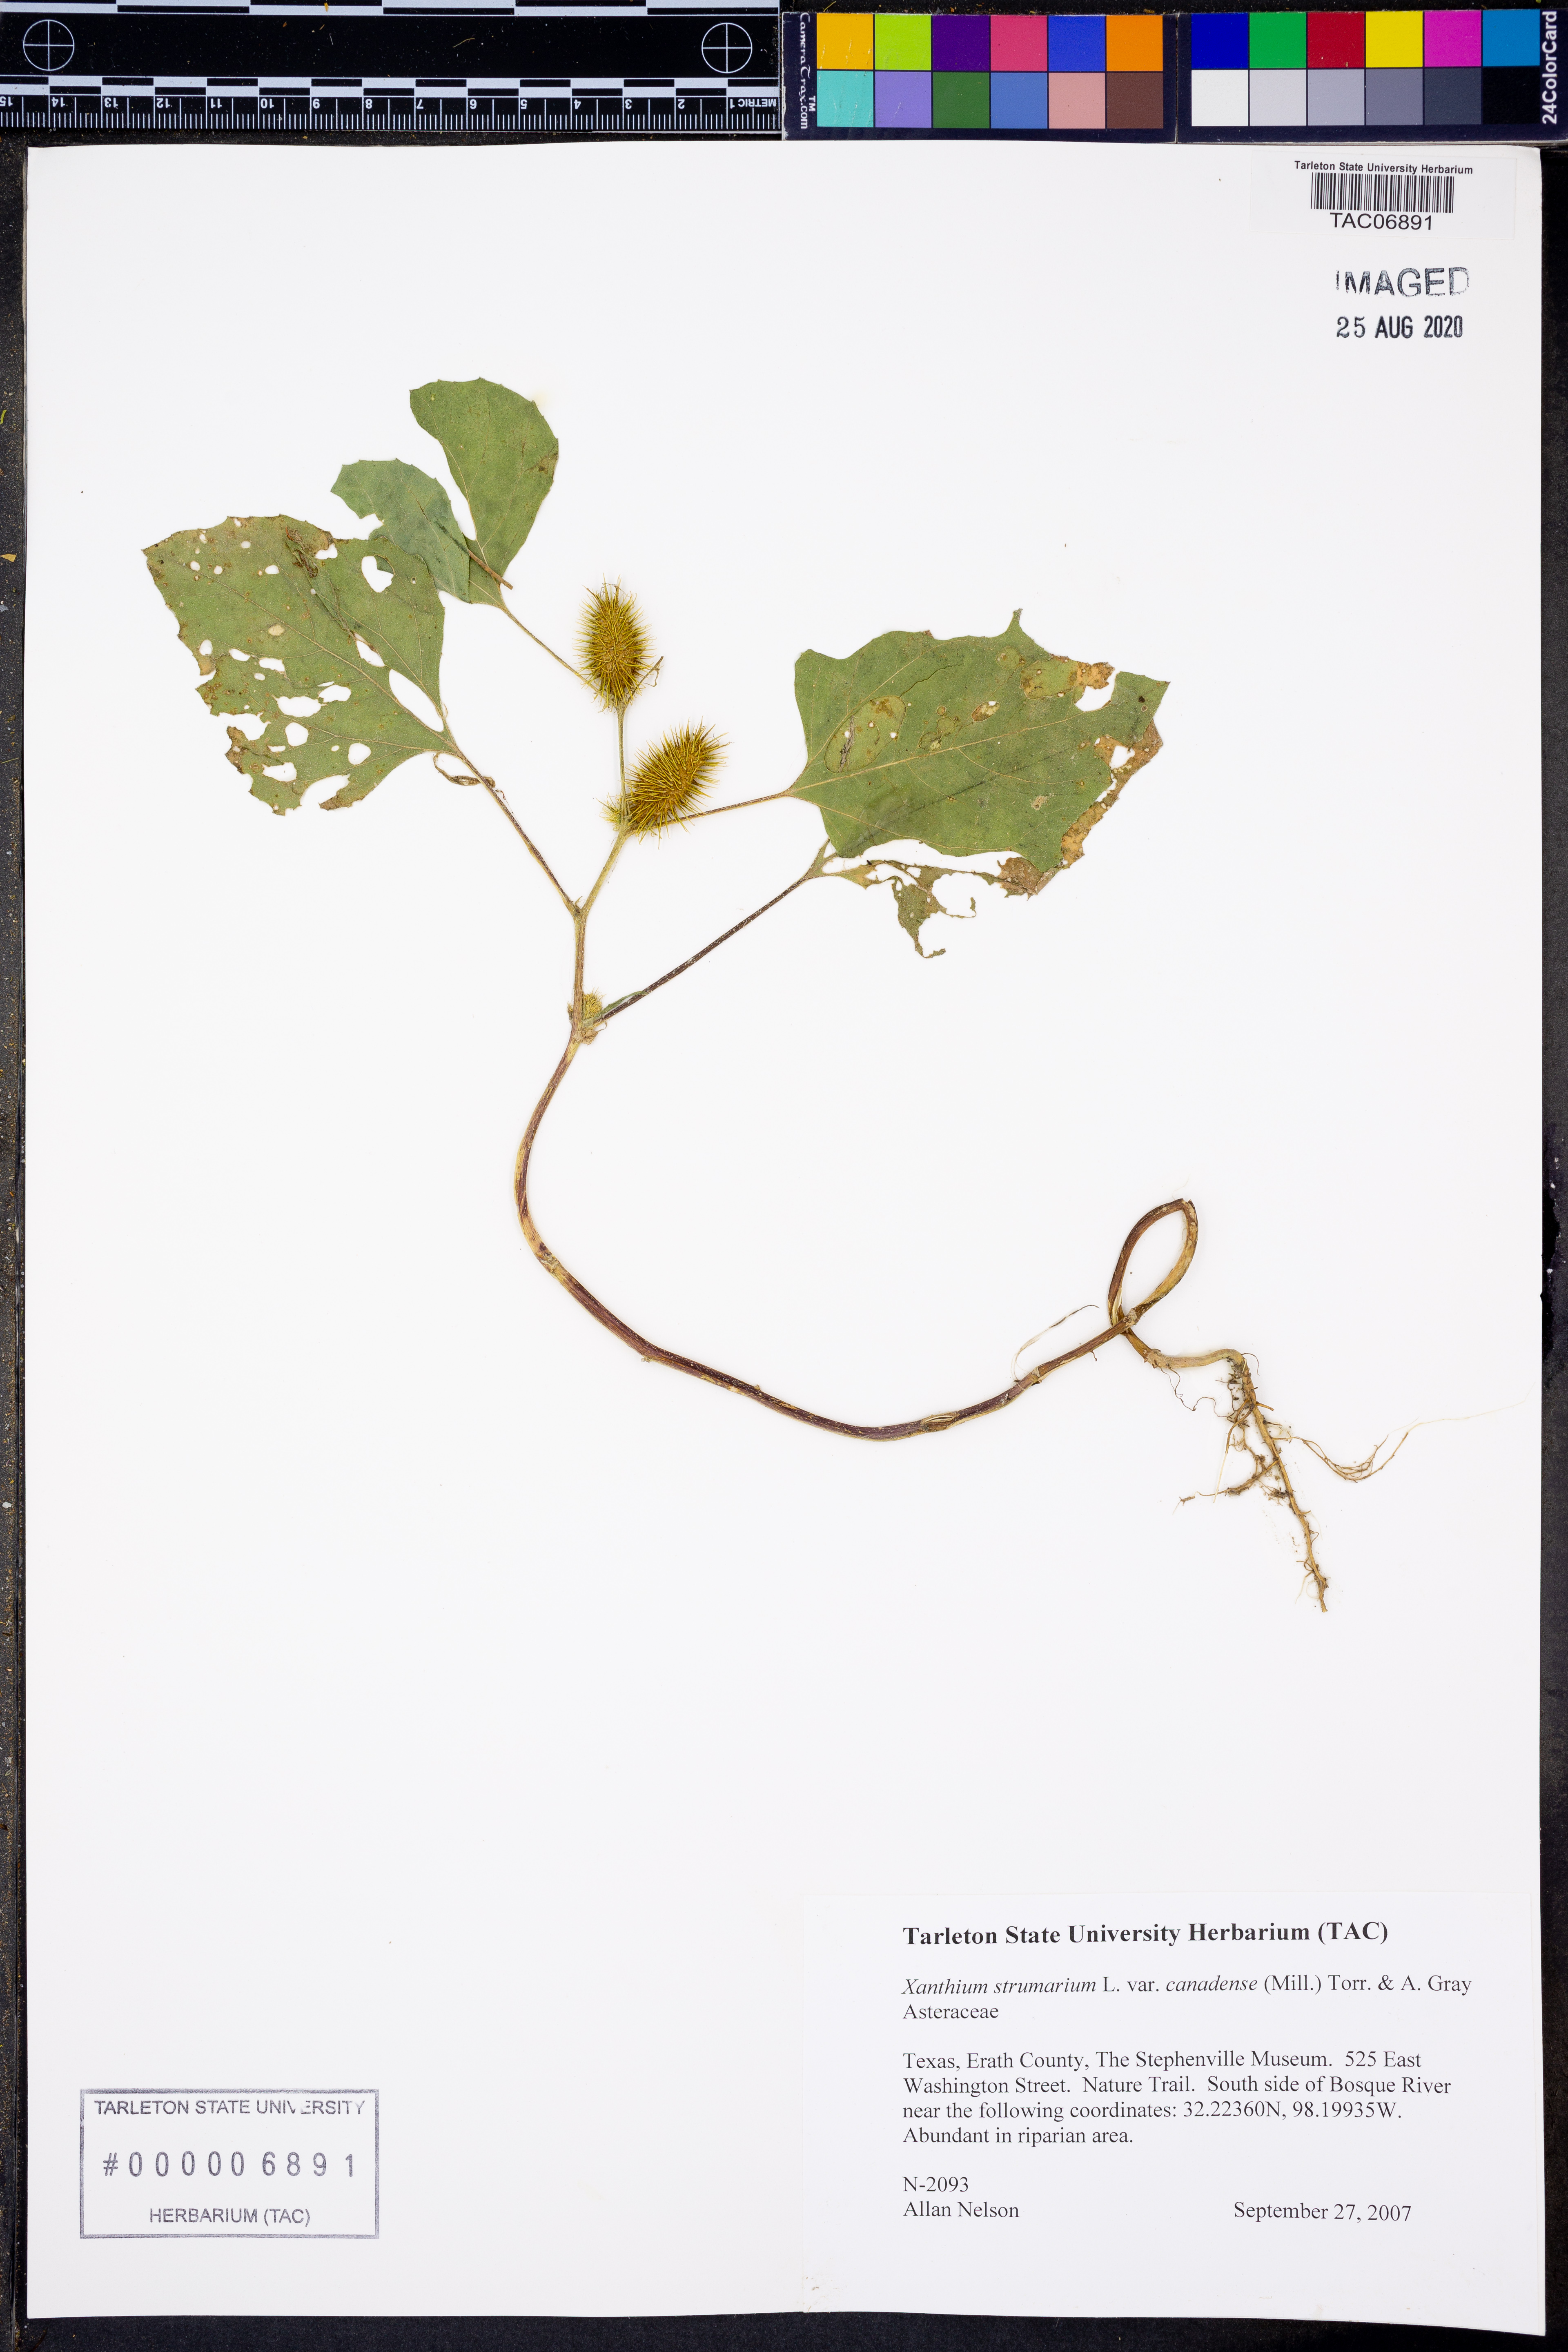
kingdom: Plantae
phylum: Tracheophyta
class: Magnoliopsida
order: Asterales
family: Asteraceae
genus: Xanthium
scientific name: Xanthium orientale
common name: Californian burr
